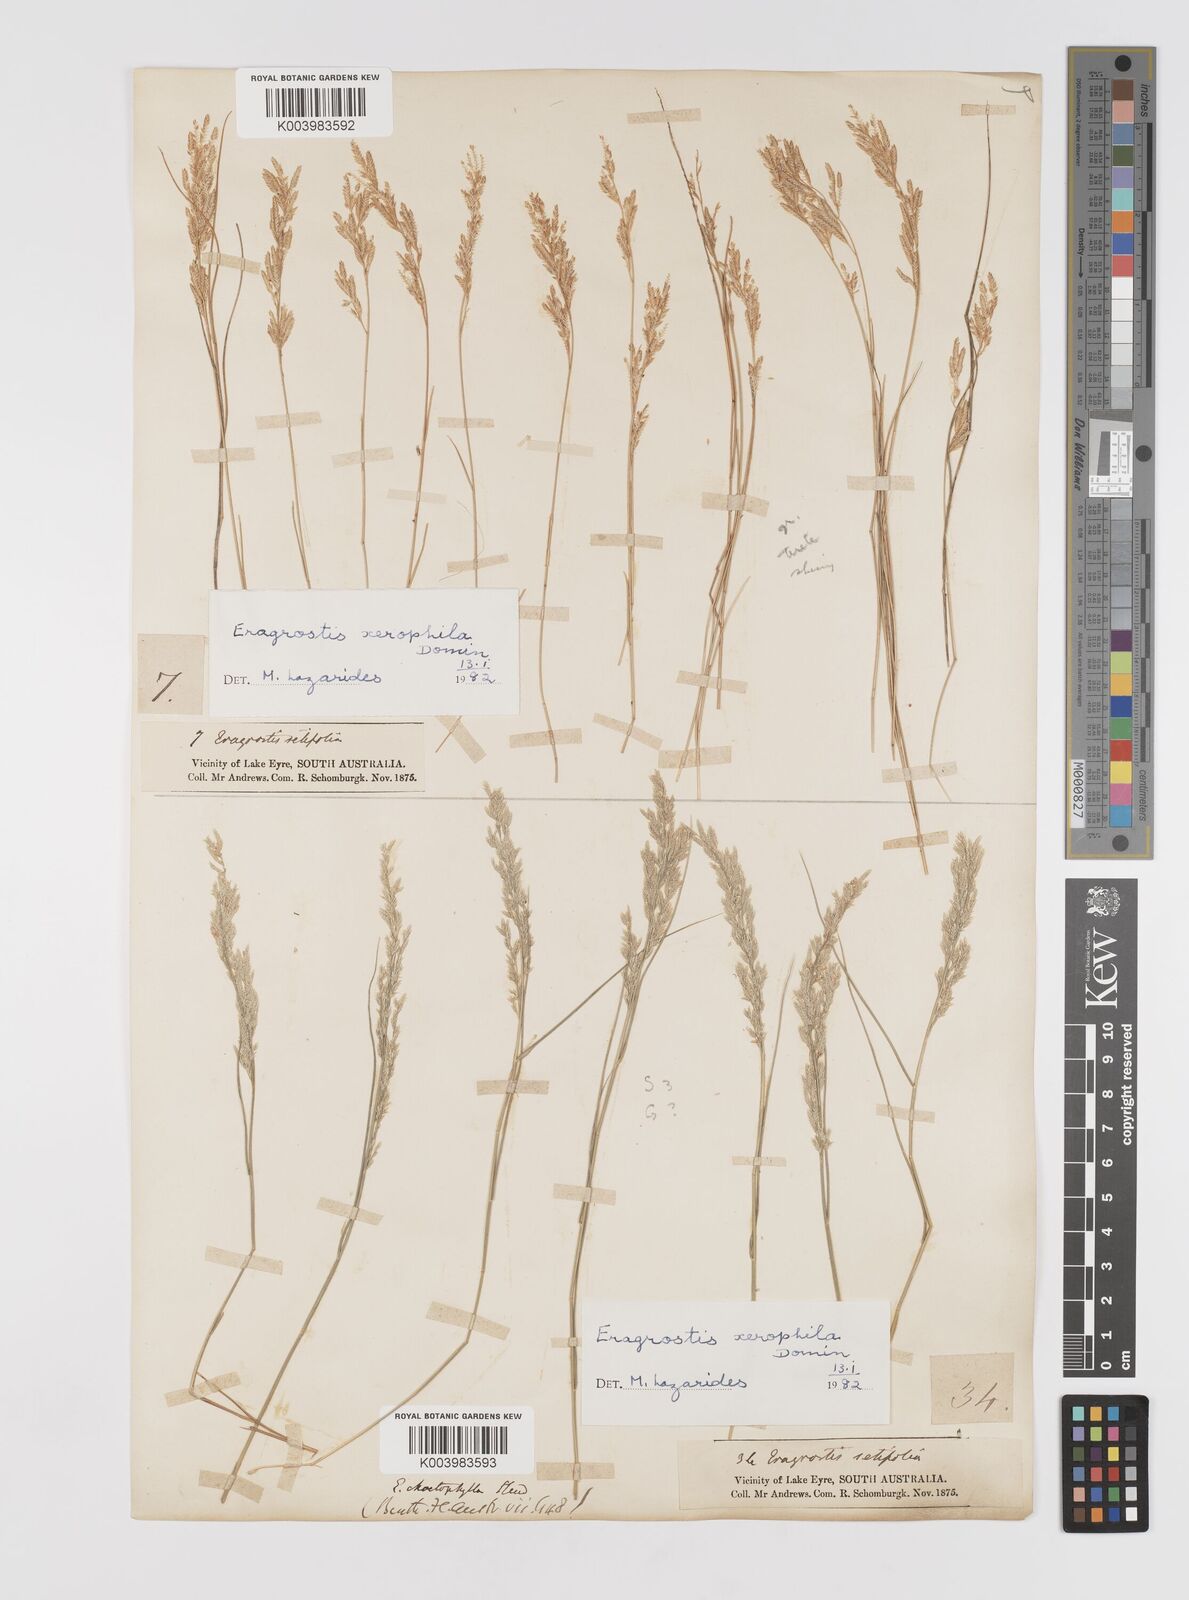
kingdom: Plantae
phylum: Tracheophyta
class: Liliopsida
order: Poales
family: Poaceae
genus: Eragrostis
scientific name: Eragrostis xerophila
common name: Wire wandarrie grass
